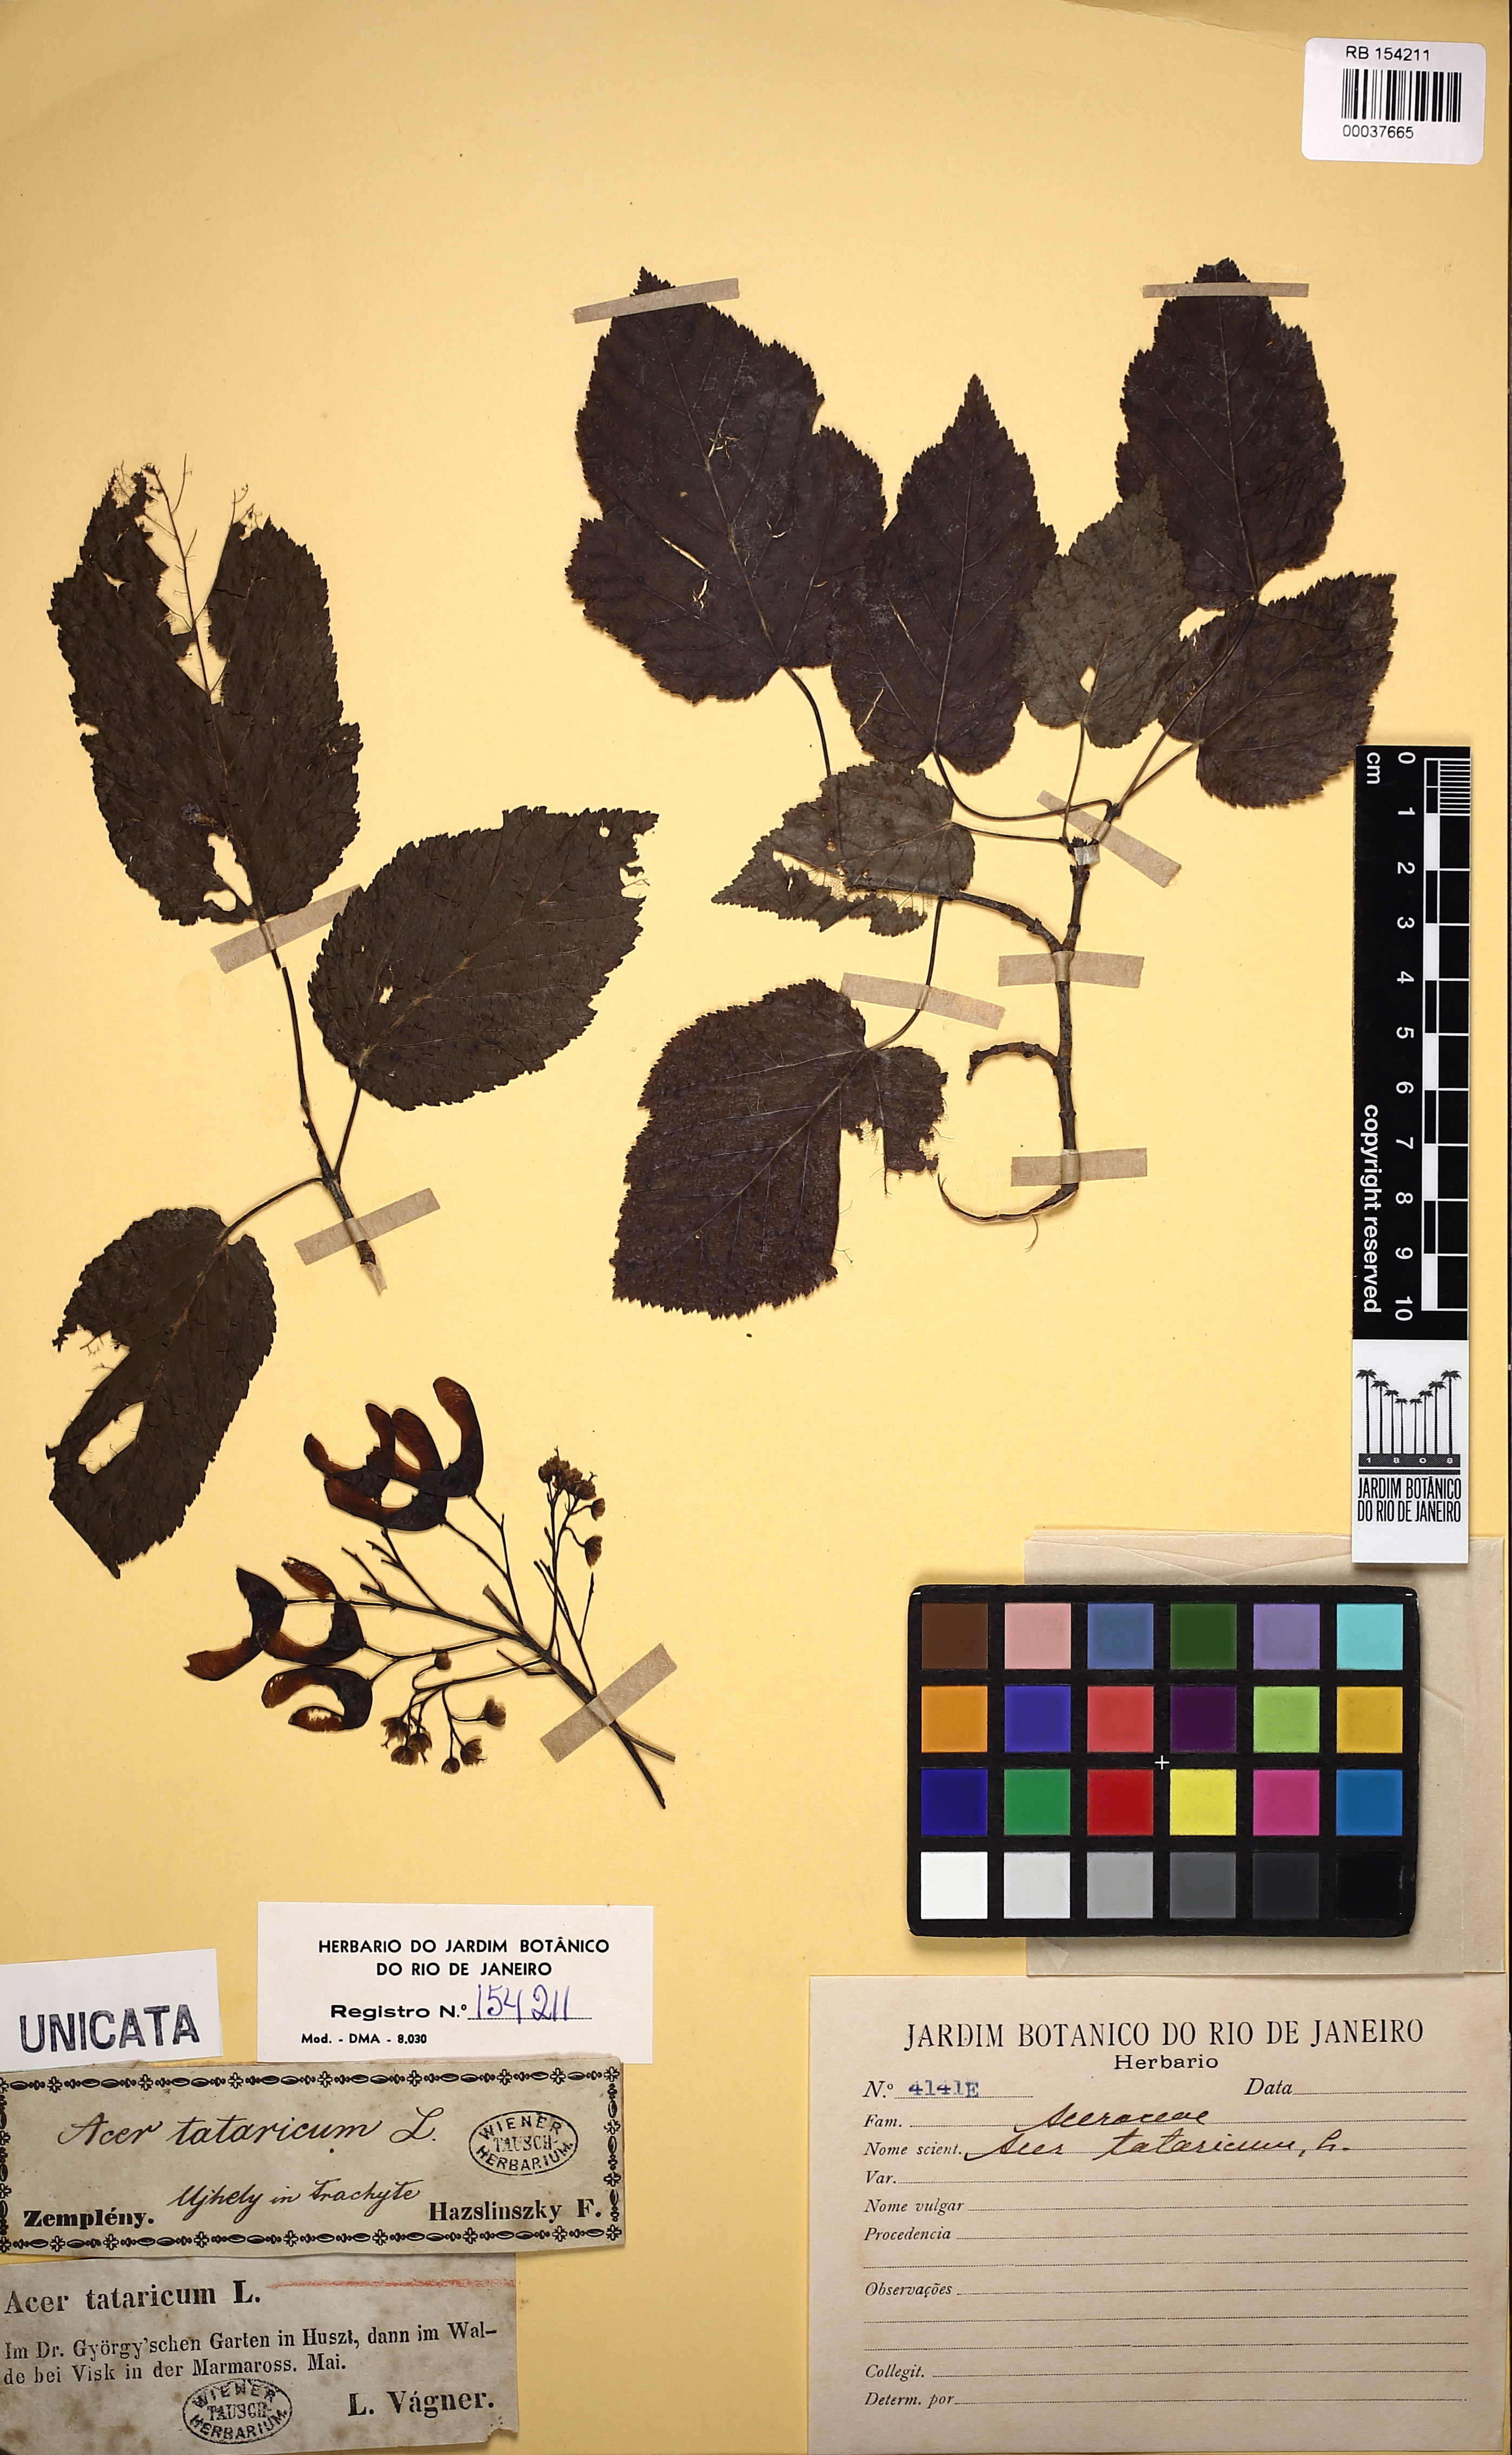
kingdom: Plantae
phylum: Tracheophyta
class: Magnoliopsida
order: Sapindales
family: Sapindaceae
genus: Acer
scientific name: Acer tataricum
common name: Tartar maple
